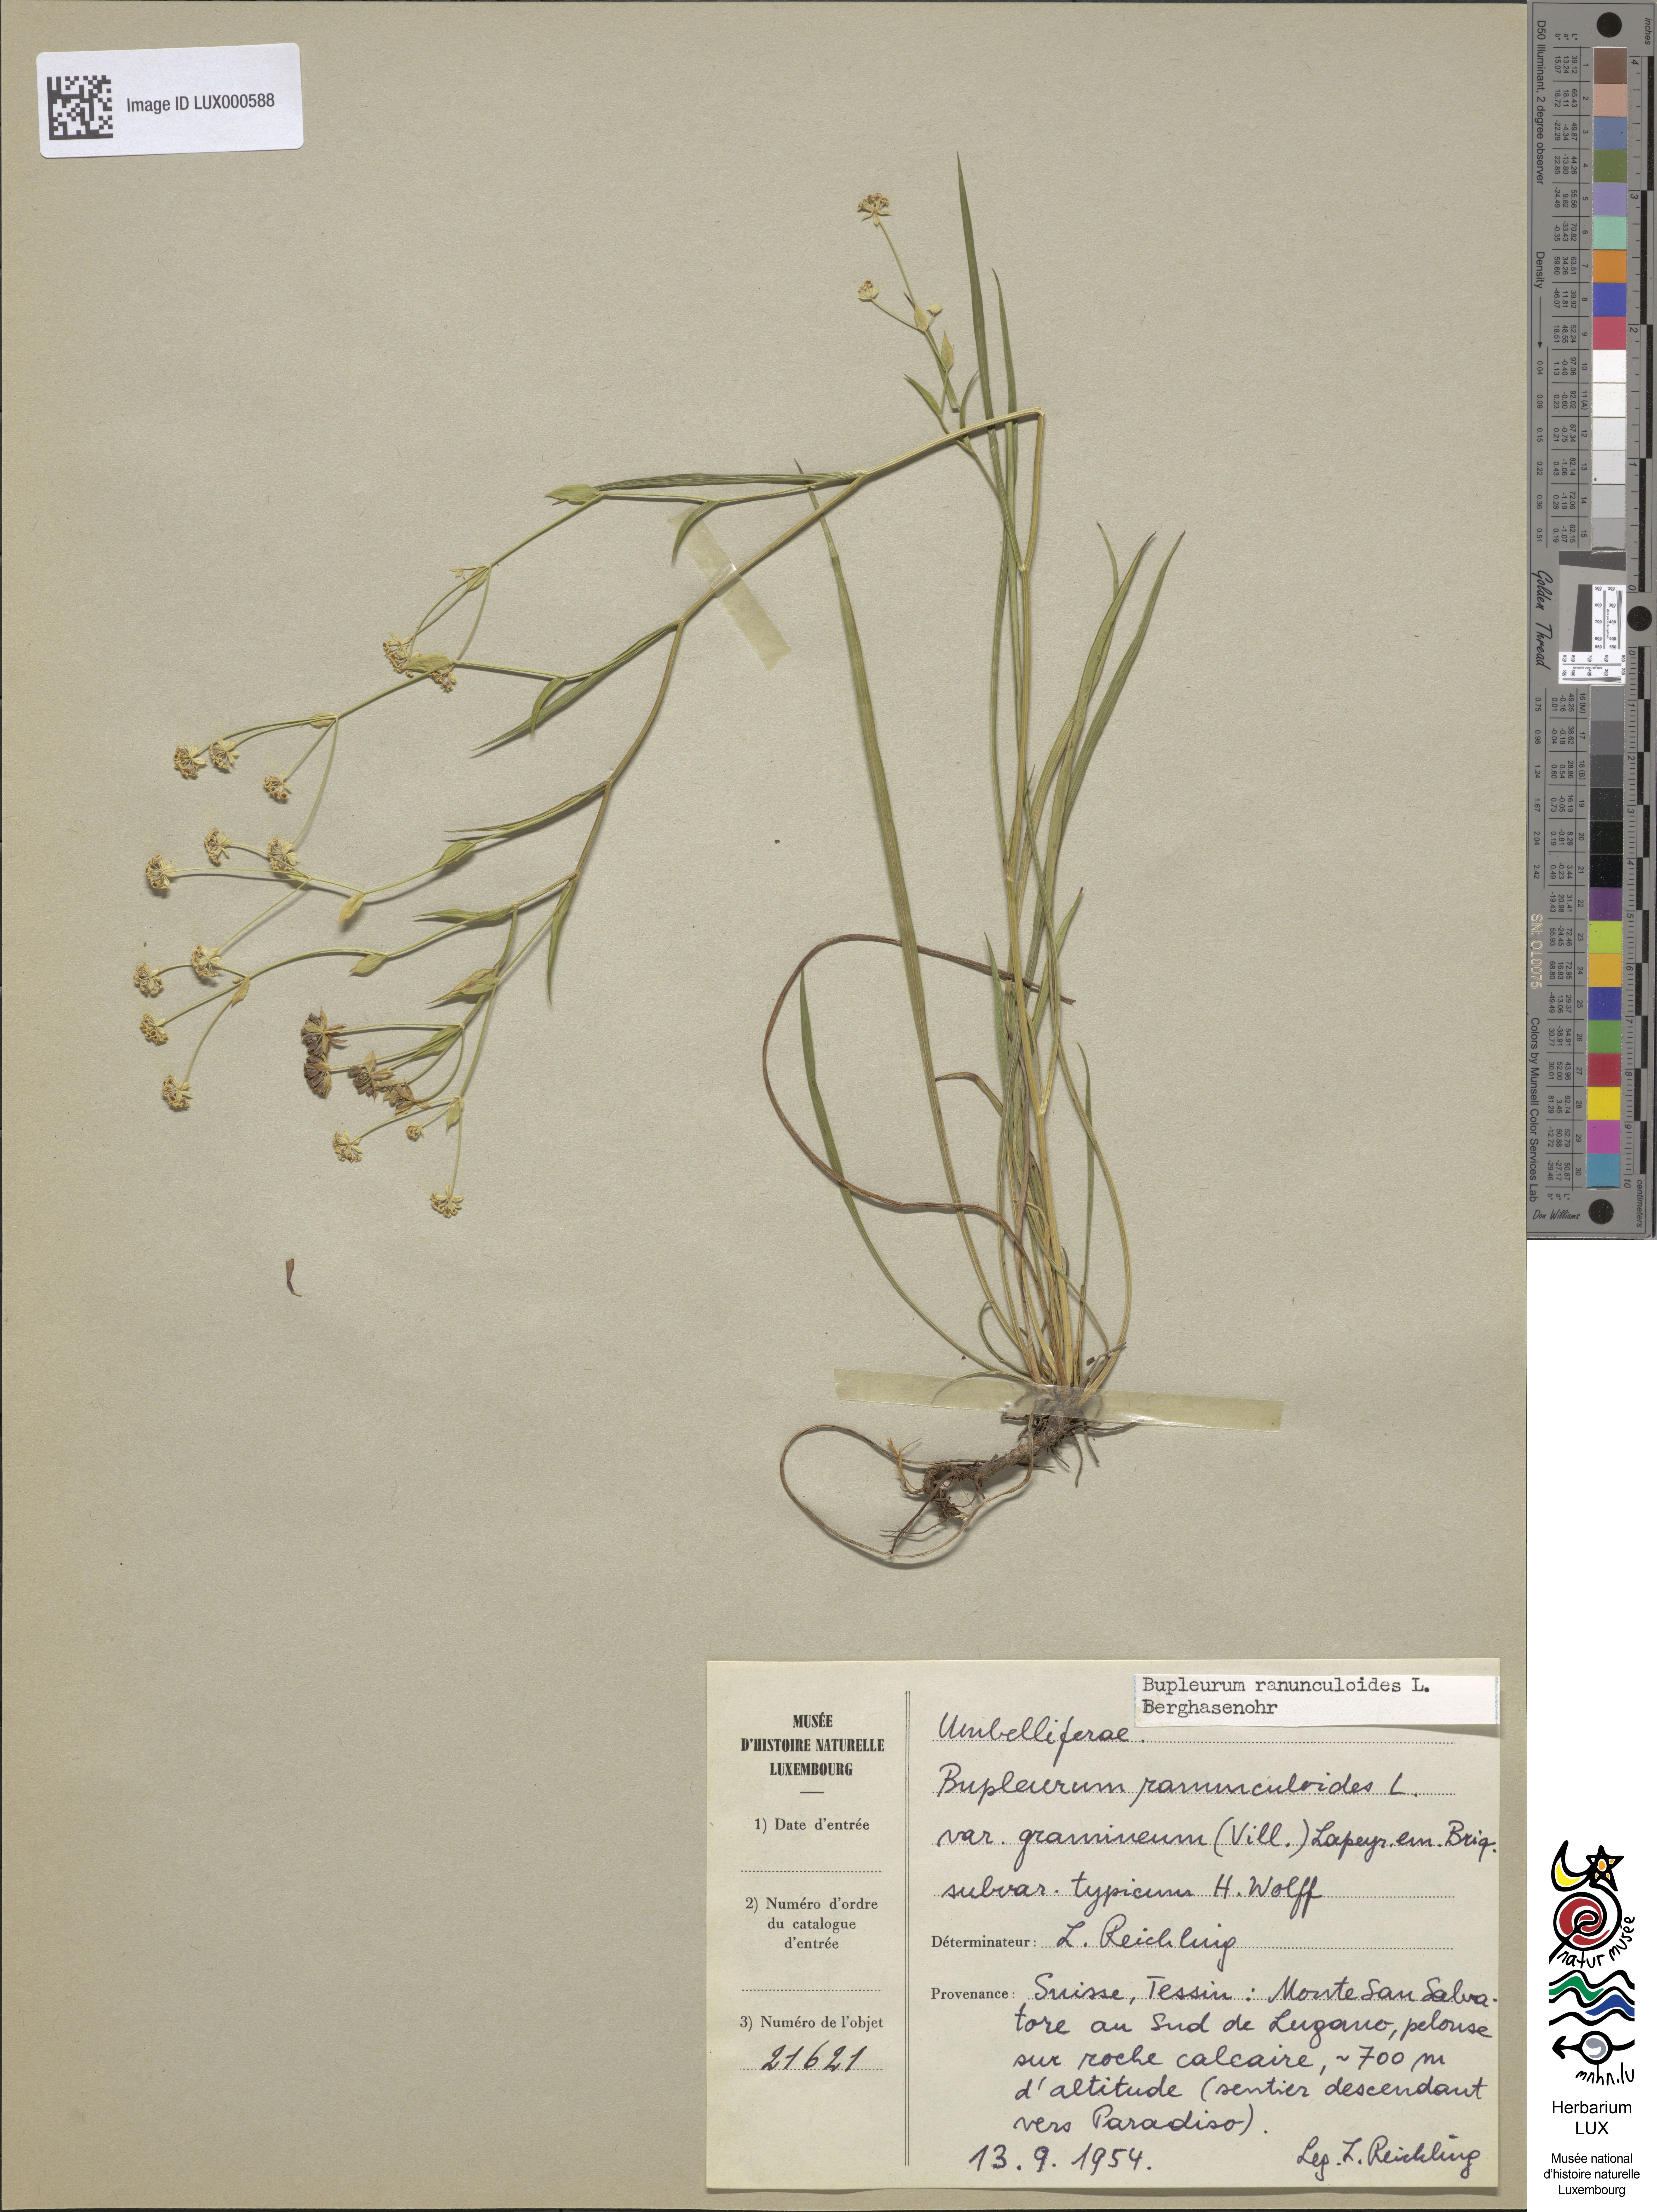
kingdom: Plantae
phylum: Tracheophyta
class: Magnoliopsida
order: Apiales
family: Apiaceae
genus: Bupleurum
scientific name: Bupleurum ranunculoides
